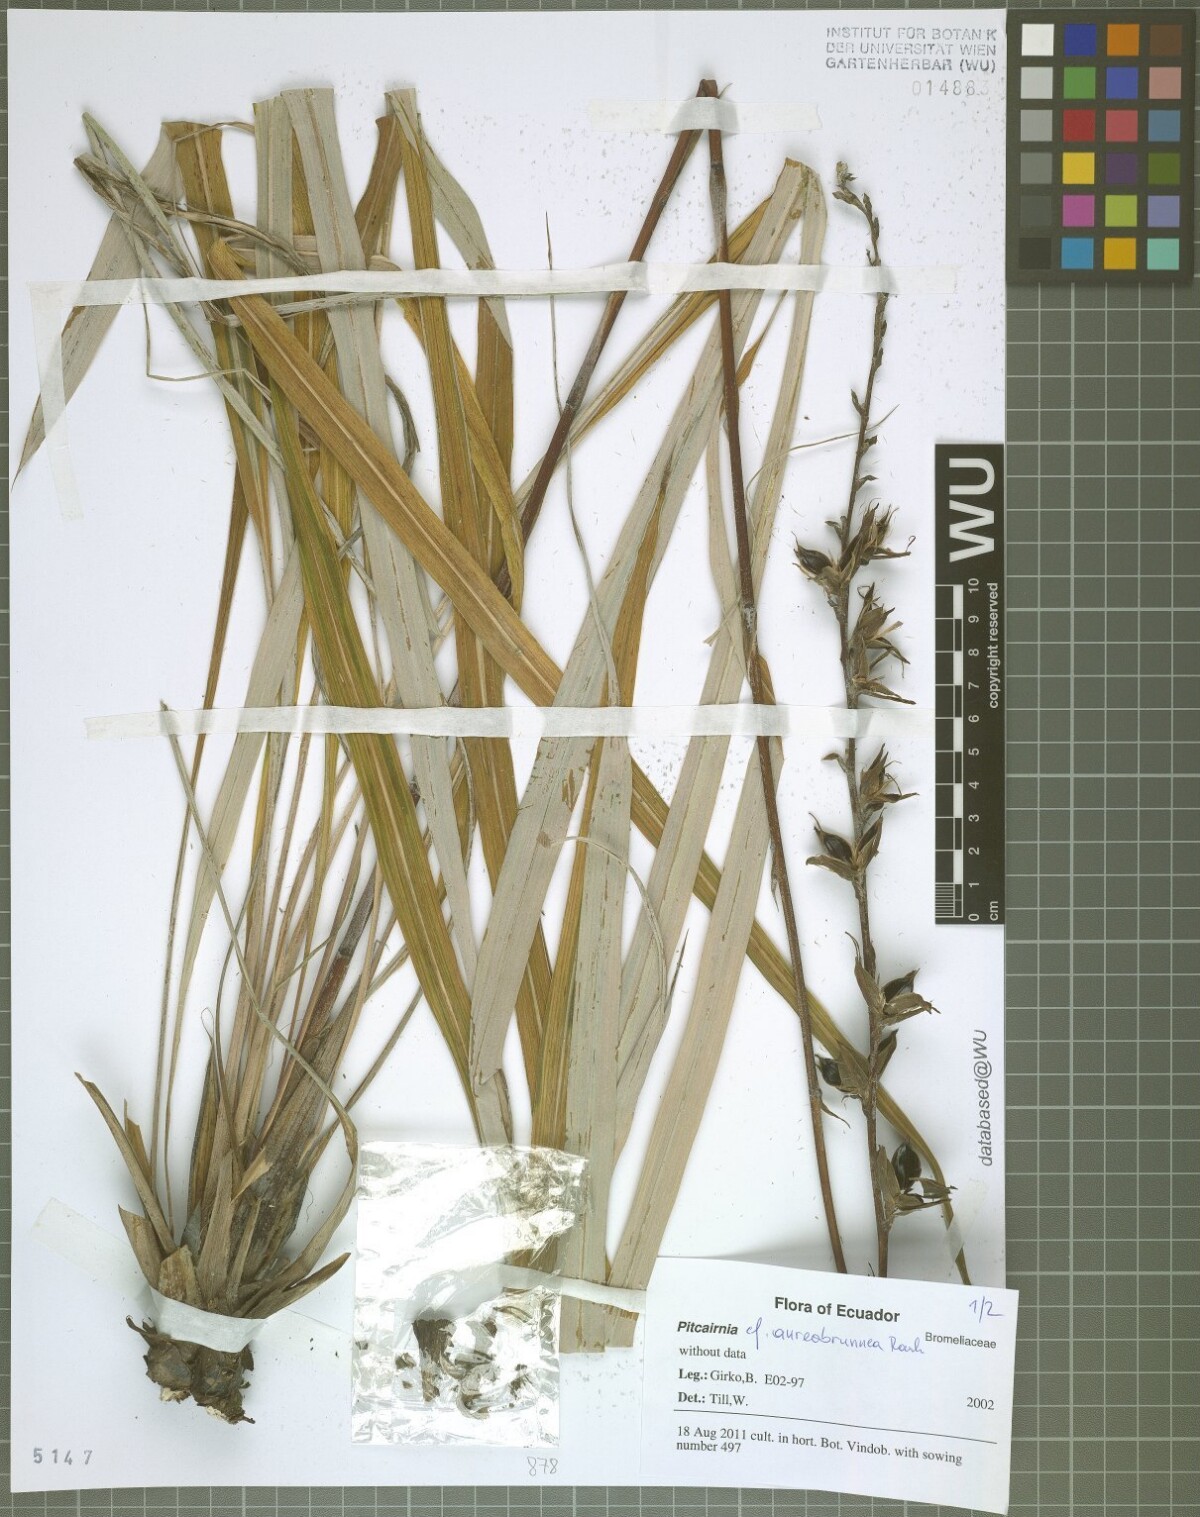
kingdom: Plantae
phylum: Tracheophyta
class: Liliopsida
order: Poales
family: Bromeliaceae
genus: Pitcairnia
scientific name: Pitcairnia aureobrunnea
